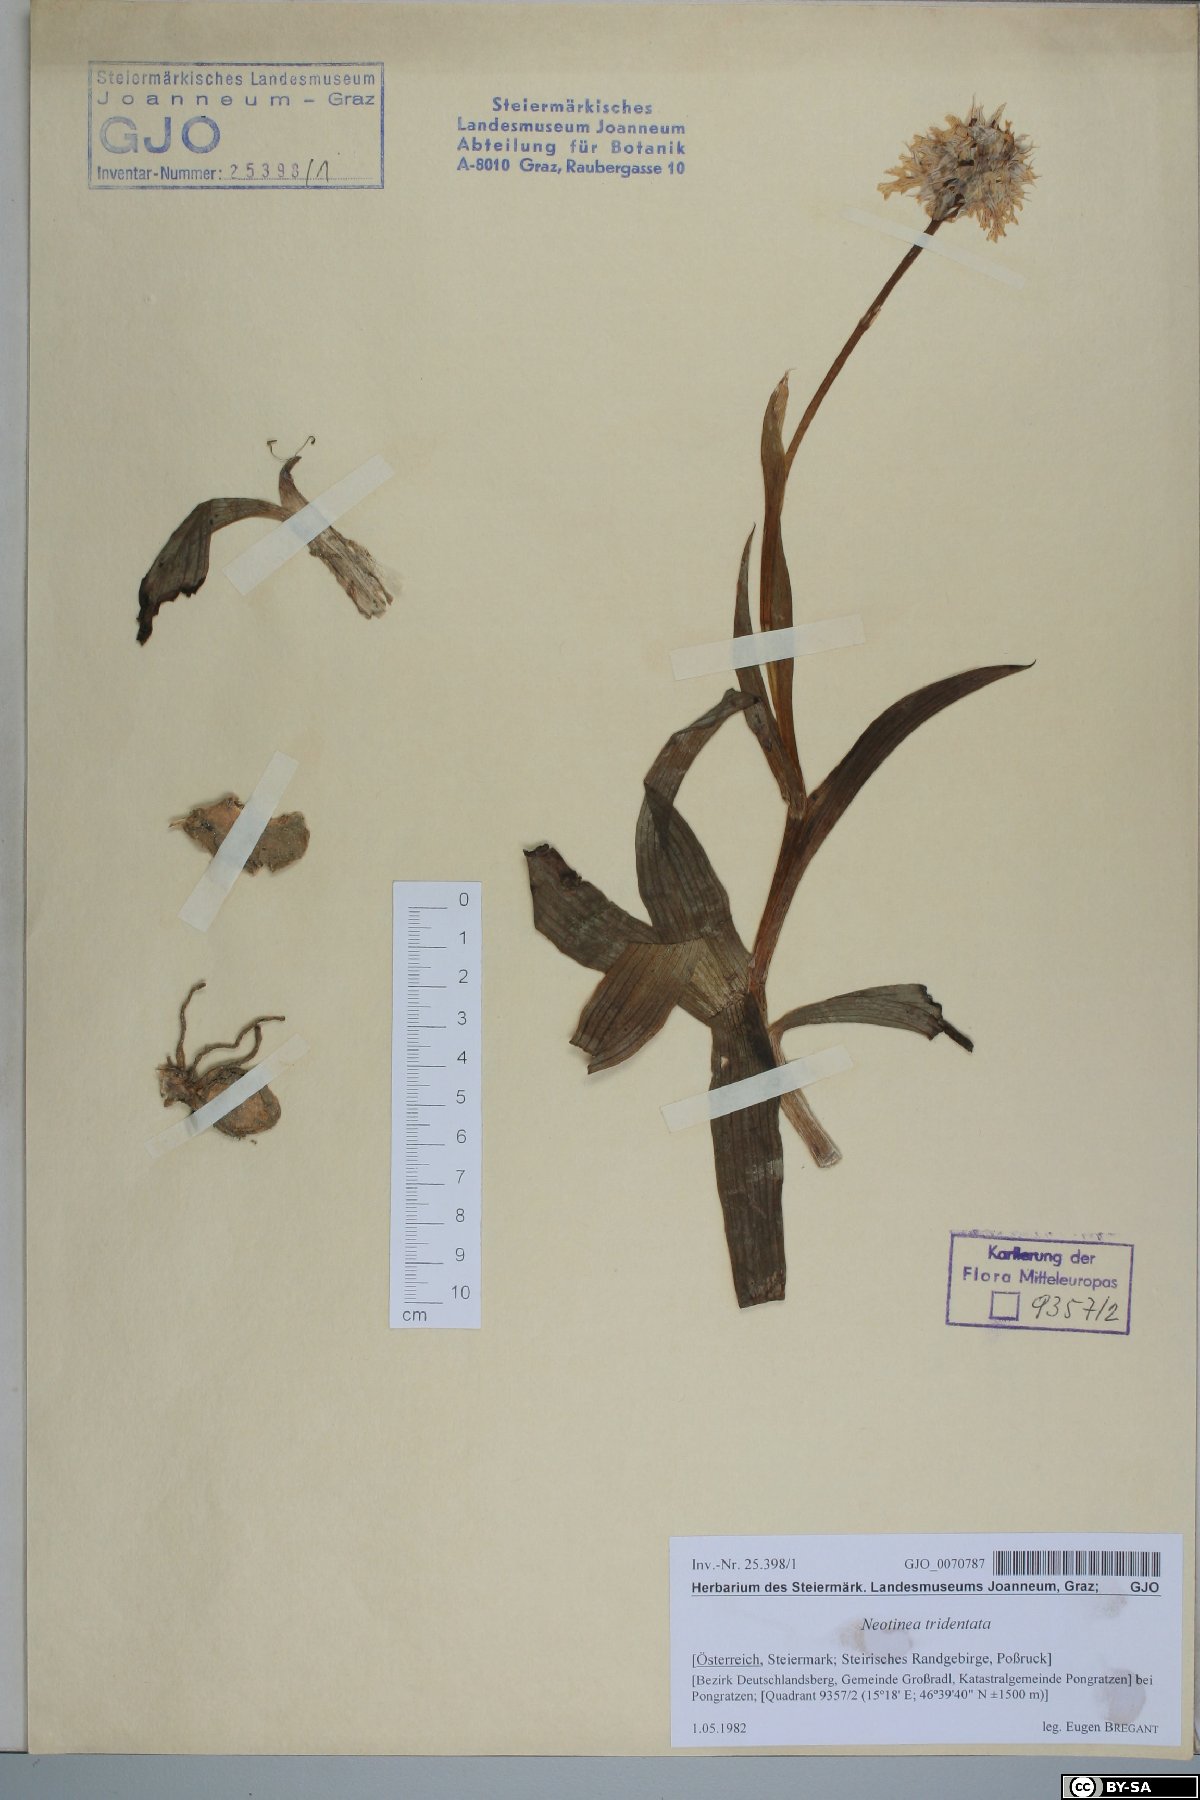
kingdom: Plantae
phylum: Tracheophyta
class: Liliopsida
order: Asparagales
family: Orchidaceae
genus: Neotinea
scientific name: Neotinea tridentata
